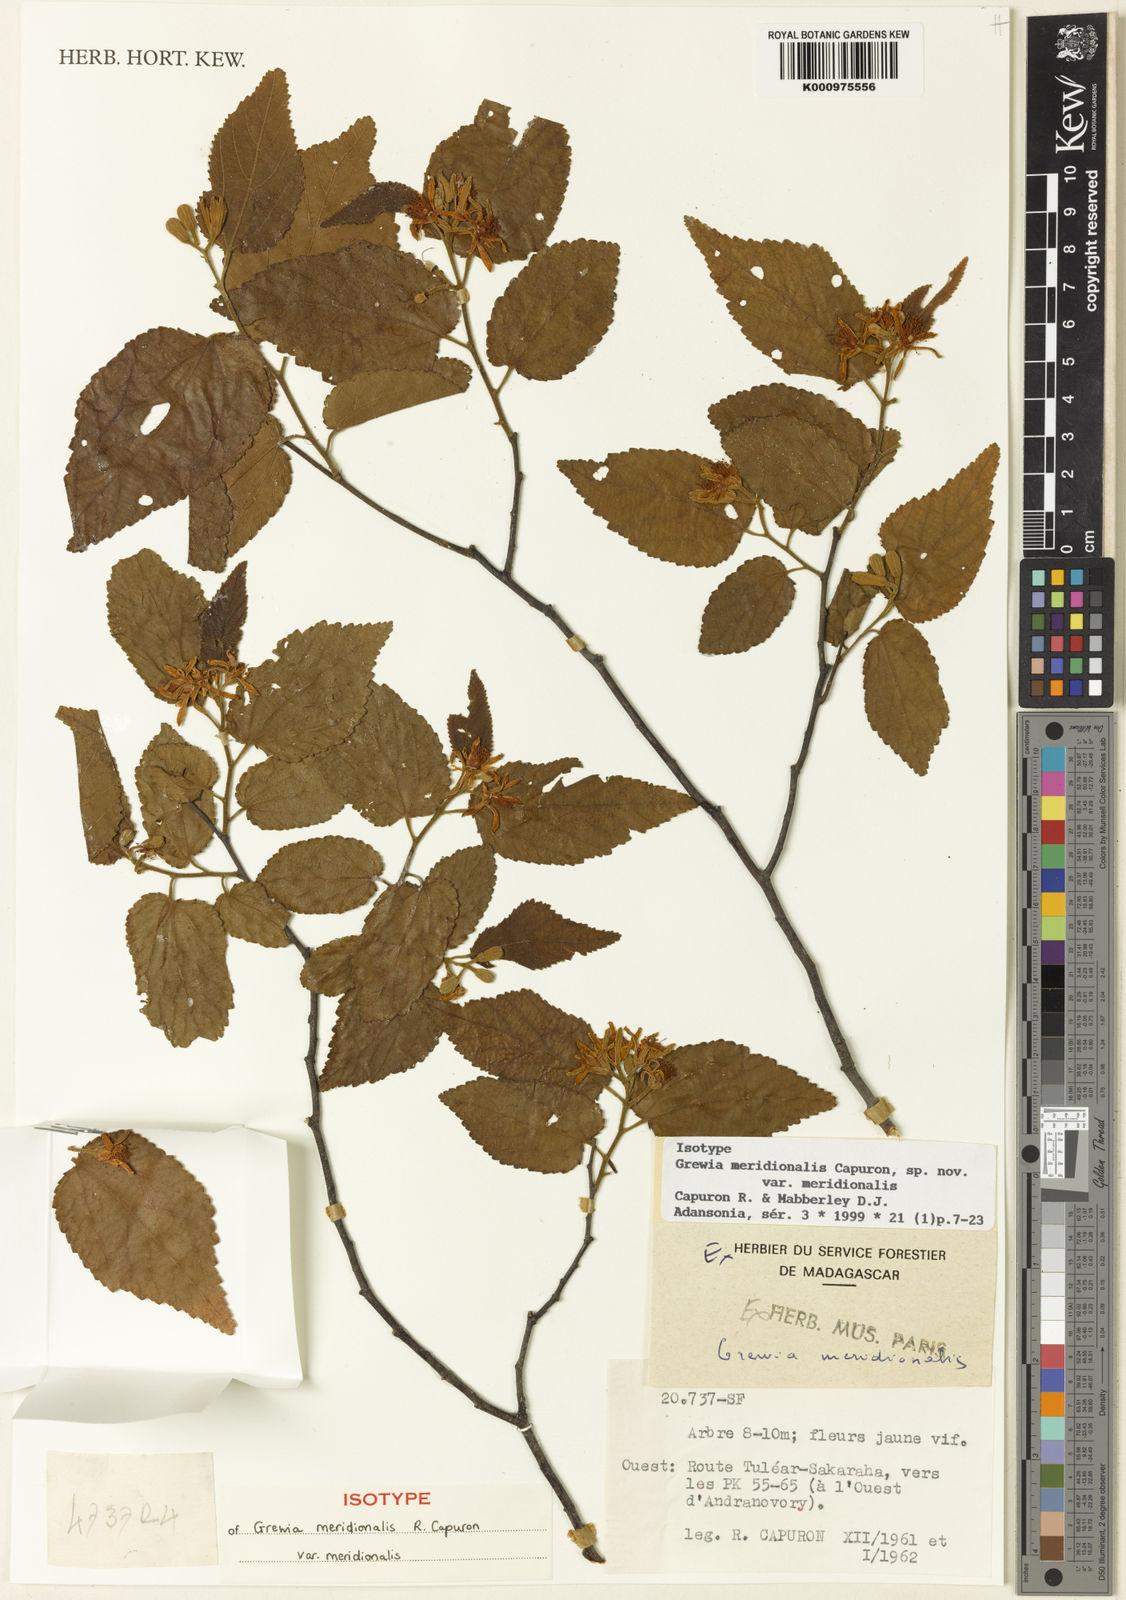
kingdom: Plantae
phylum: Tracheophyta
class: Magnoliopsida
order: Malvales
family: Malvaceae
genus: Grewia
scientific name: Grewia meridionalis
